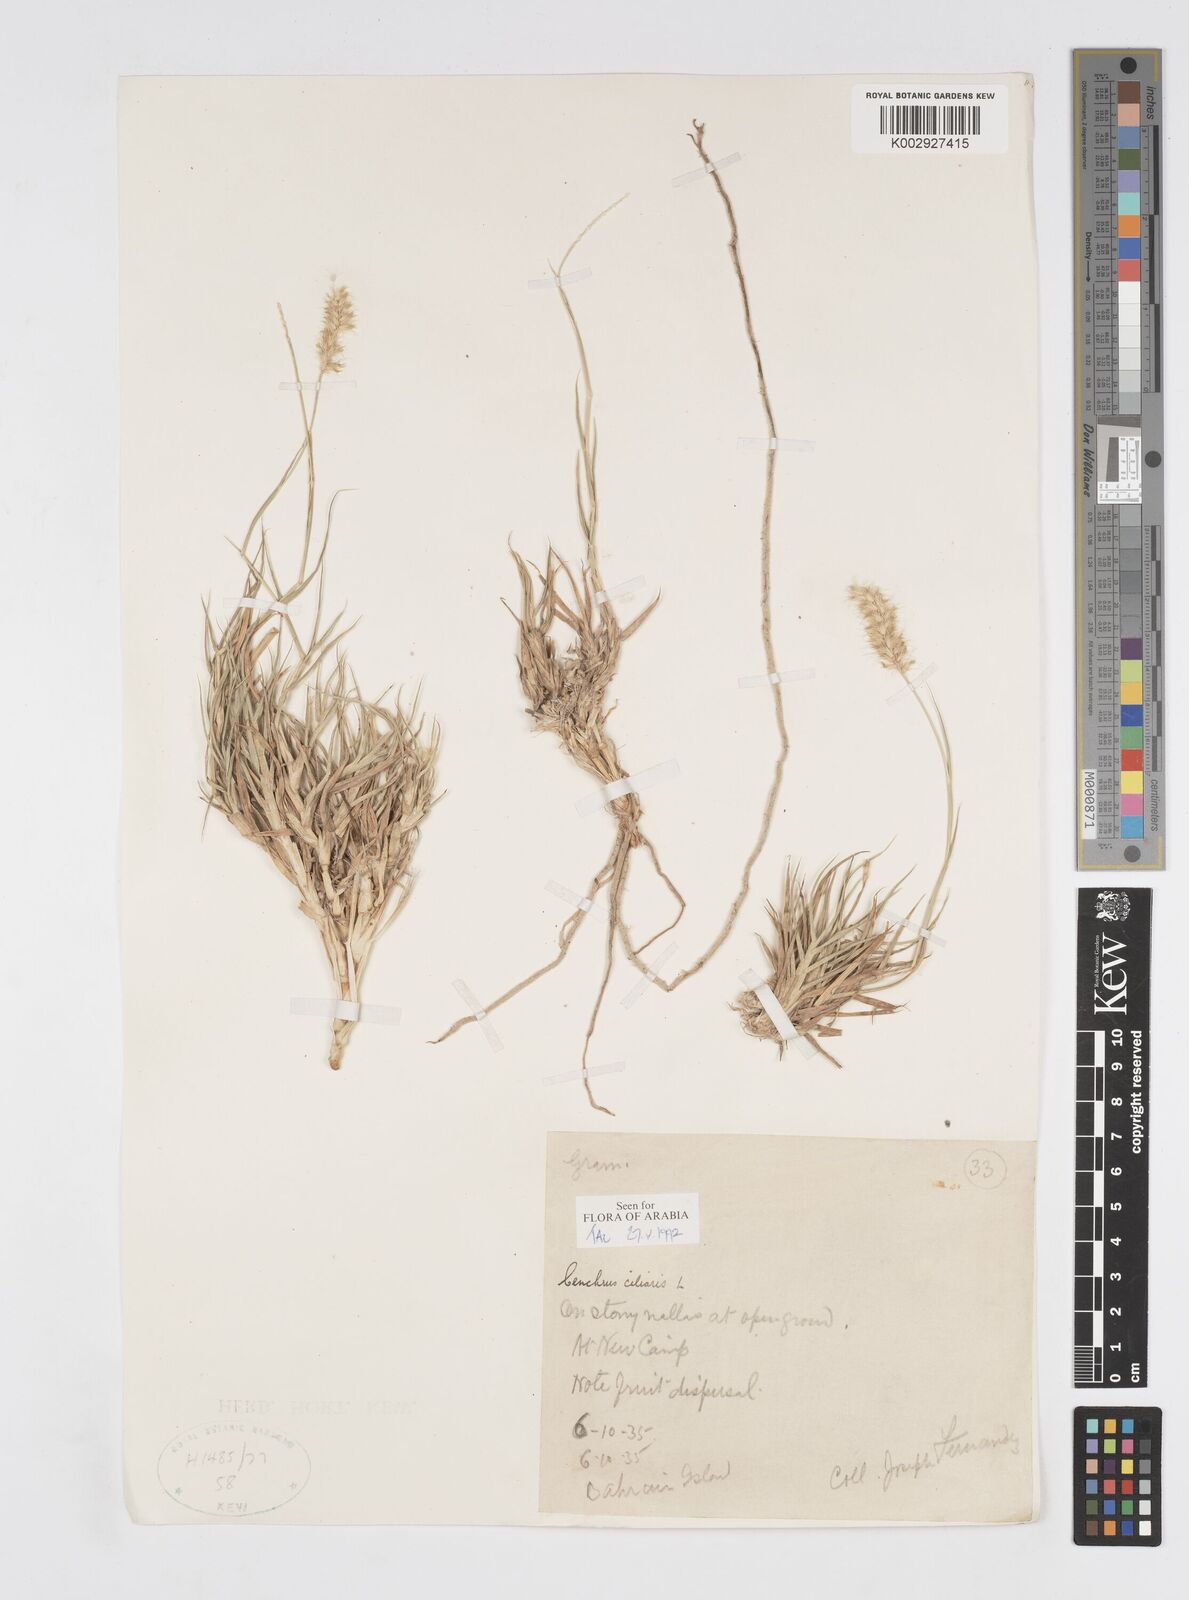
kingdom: Plantae
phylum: Tracheophyta
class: Liliopsida
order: Poales
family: Poaceae
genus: Cenchrus
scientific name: Cenchrus ciliaris
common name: Buffelgrass
